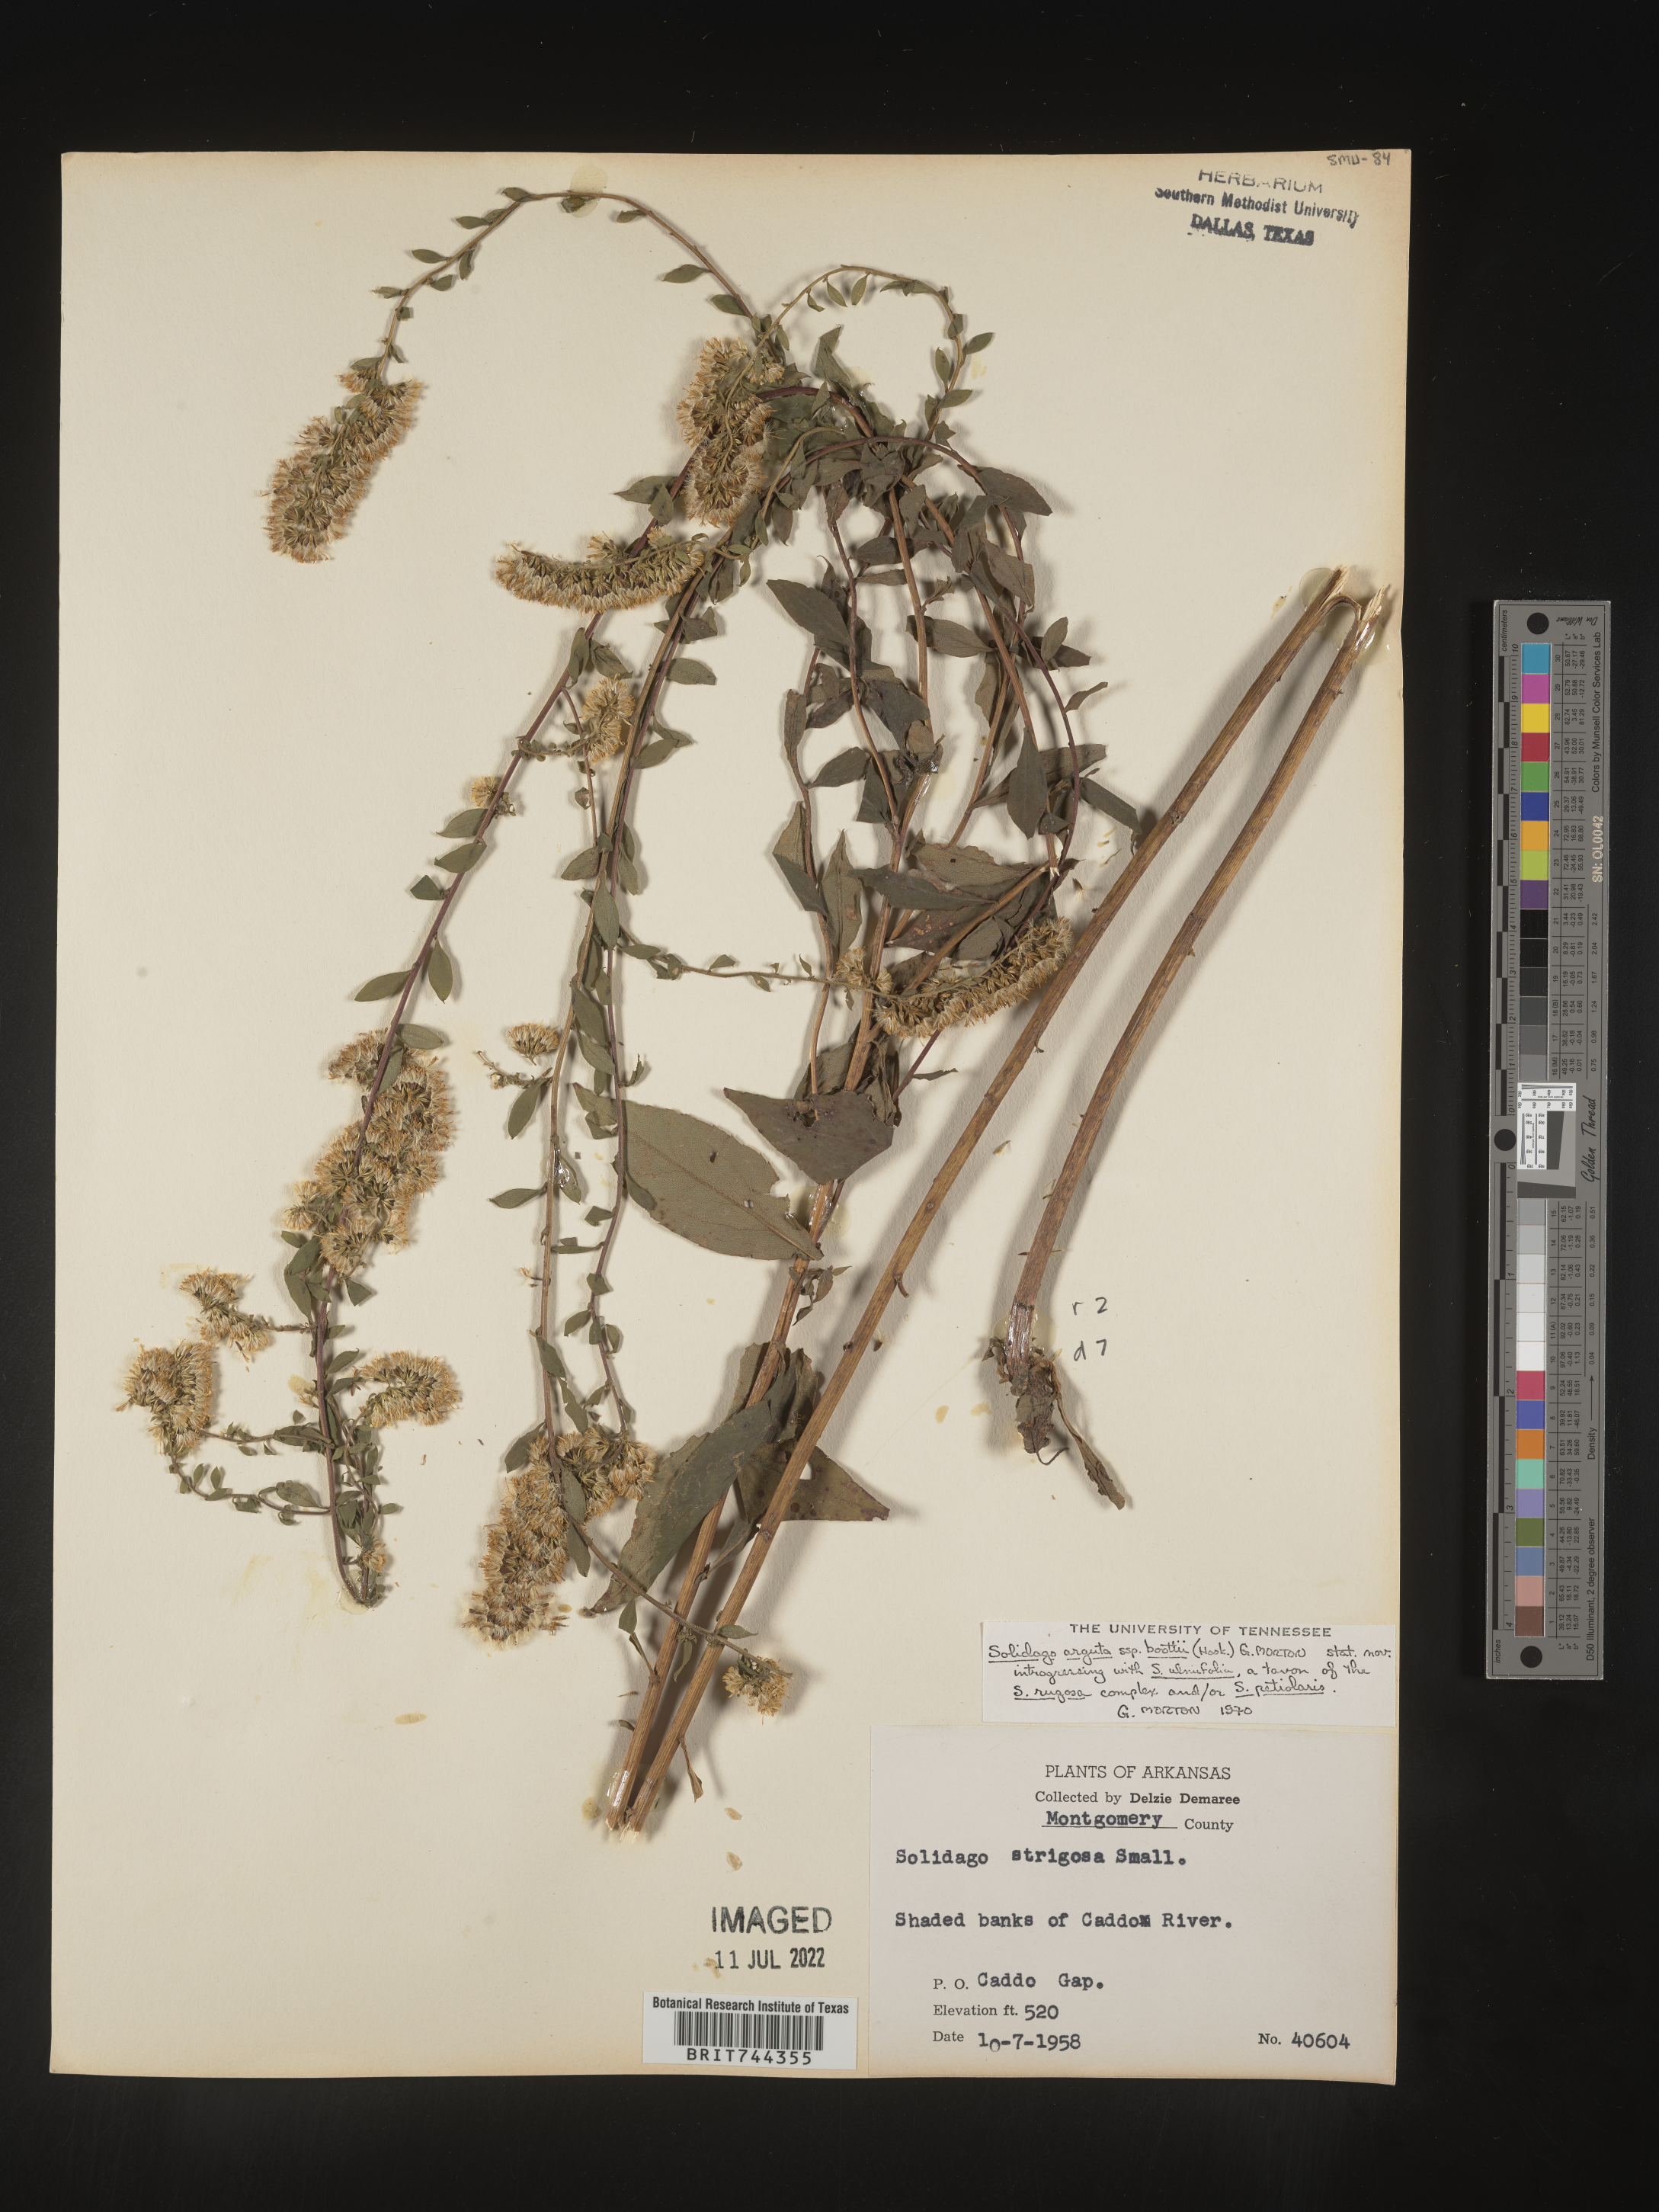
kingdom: Plantae
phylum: Tracheophyta
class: Magnoliopsida
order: Asterales
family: Asteraceae
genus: Solidago
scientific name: Solidago arguta
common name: Atlantic goldenrod
